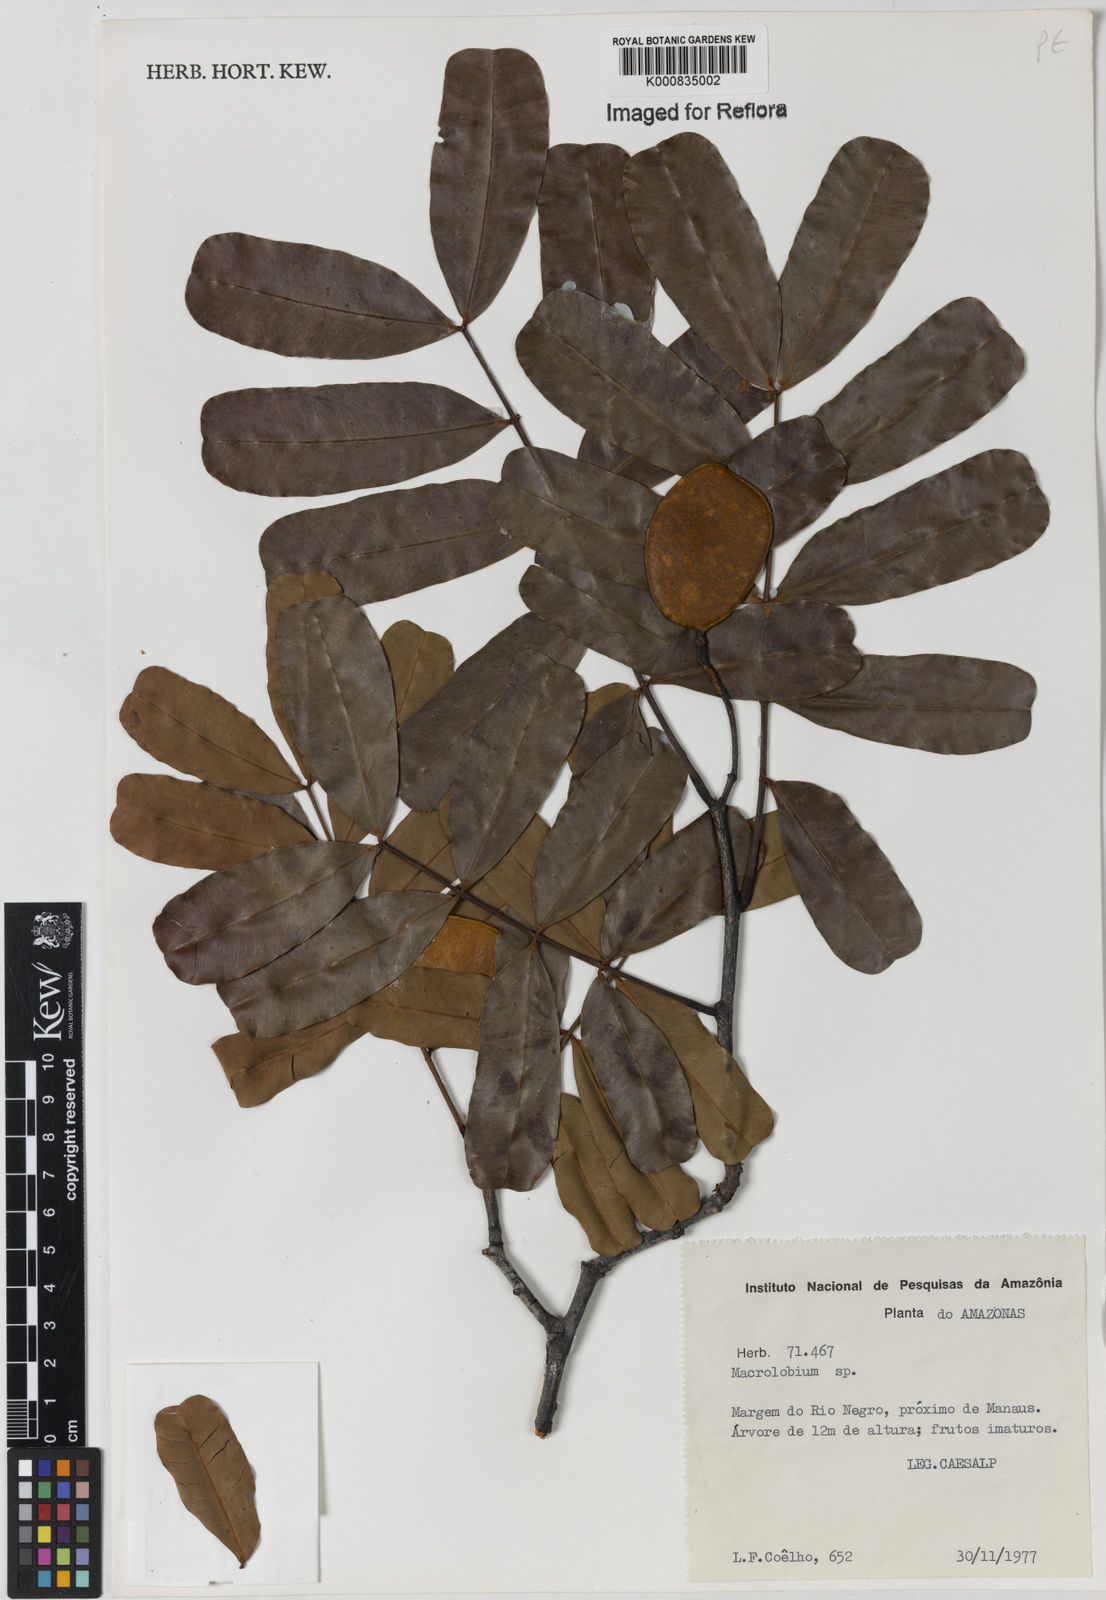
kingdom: Plantae
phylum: Tracheophyta
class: Magnoliopsida
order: Fabales
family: Fabaceae
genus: Macrolobium
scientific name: Macrolobium
